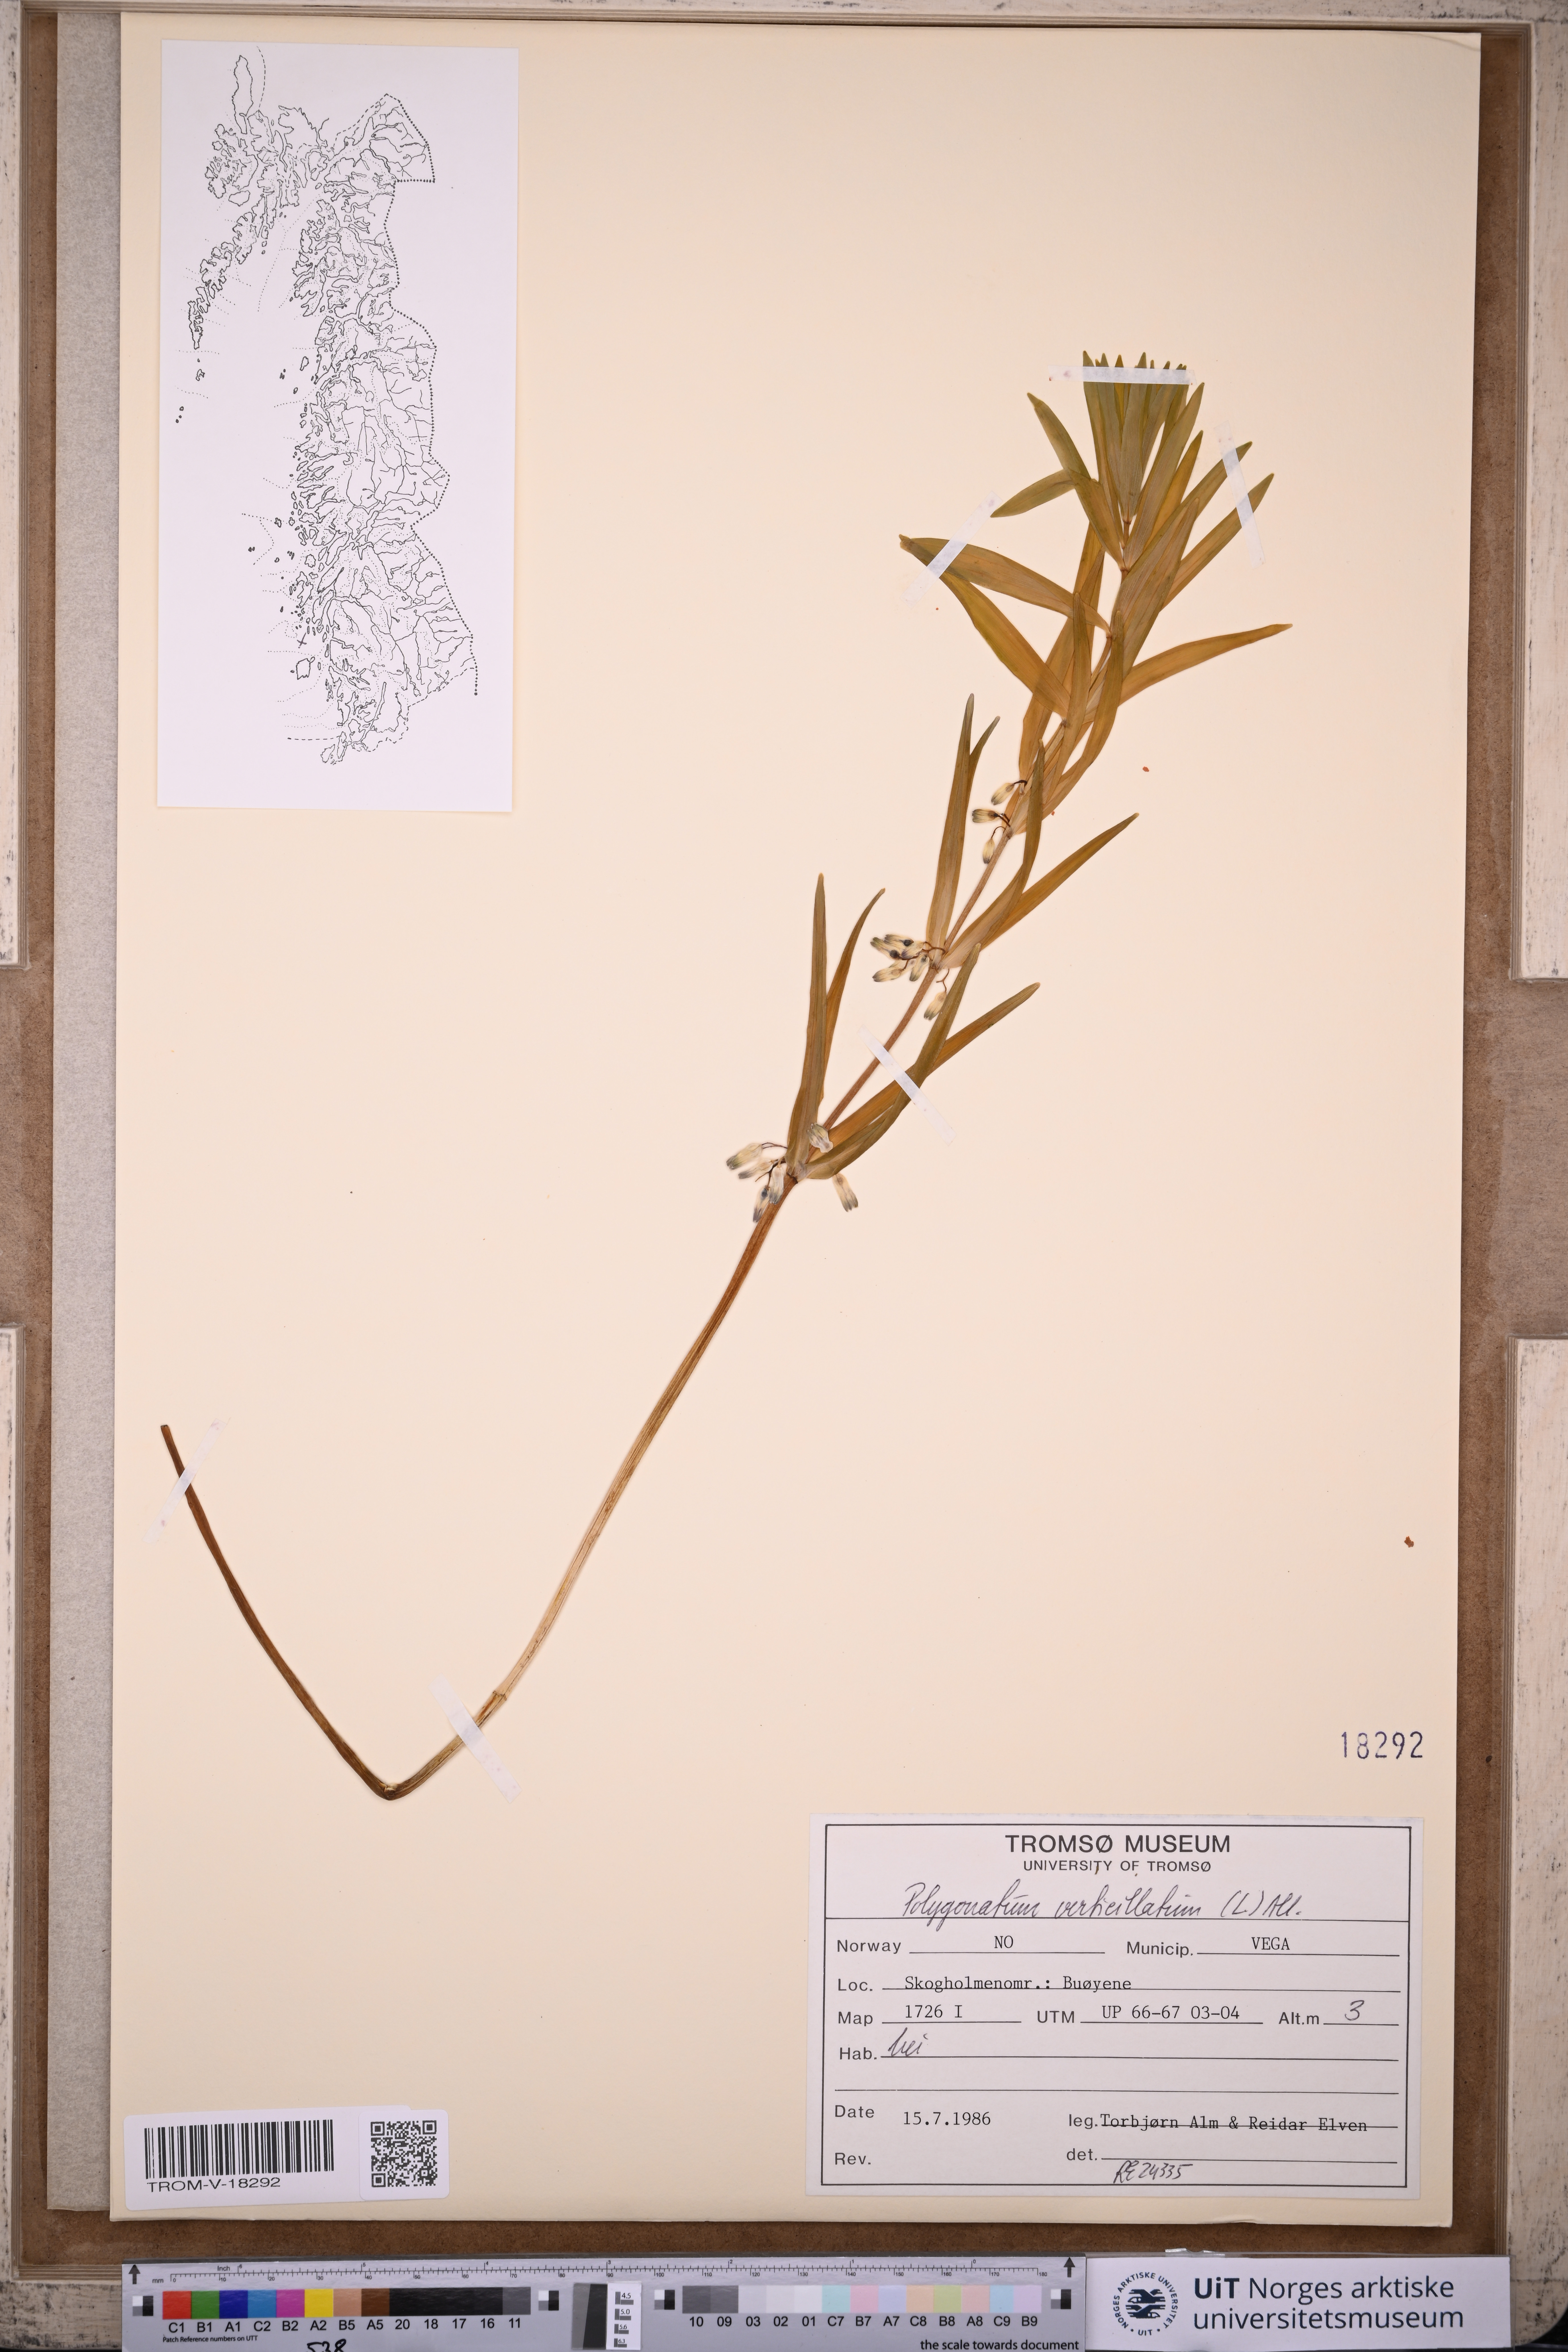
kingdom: Plantae
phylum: Tracheophyta
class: Liliopsida
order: Asparagales
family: Asparagaceae
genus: Polygonatum
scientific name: Polygonatum verticillatum
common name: Whorled solomon's-seal
